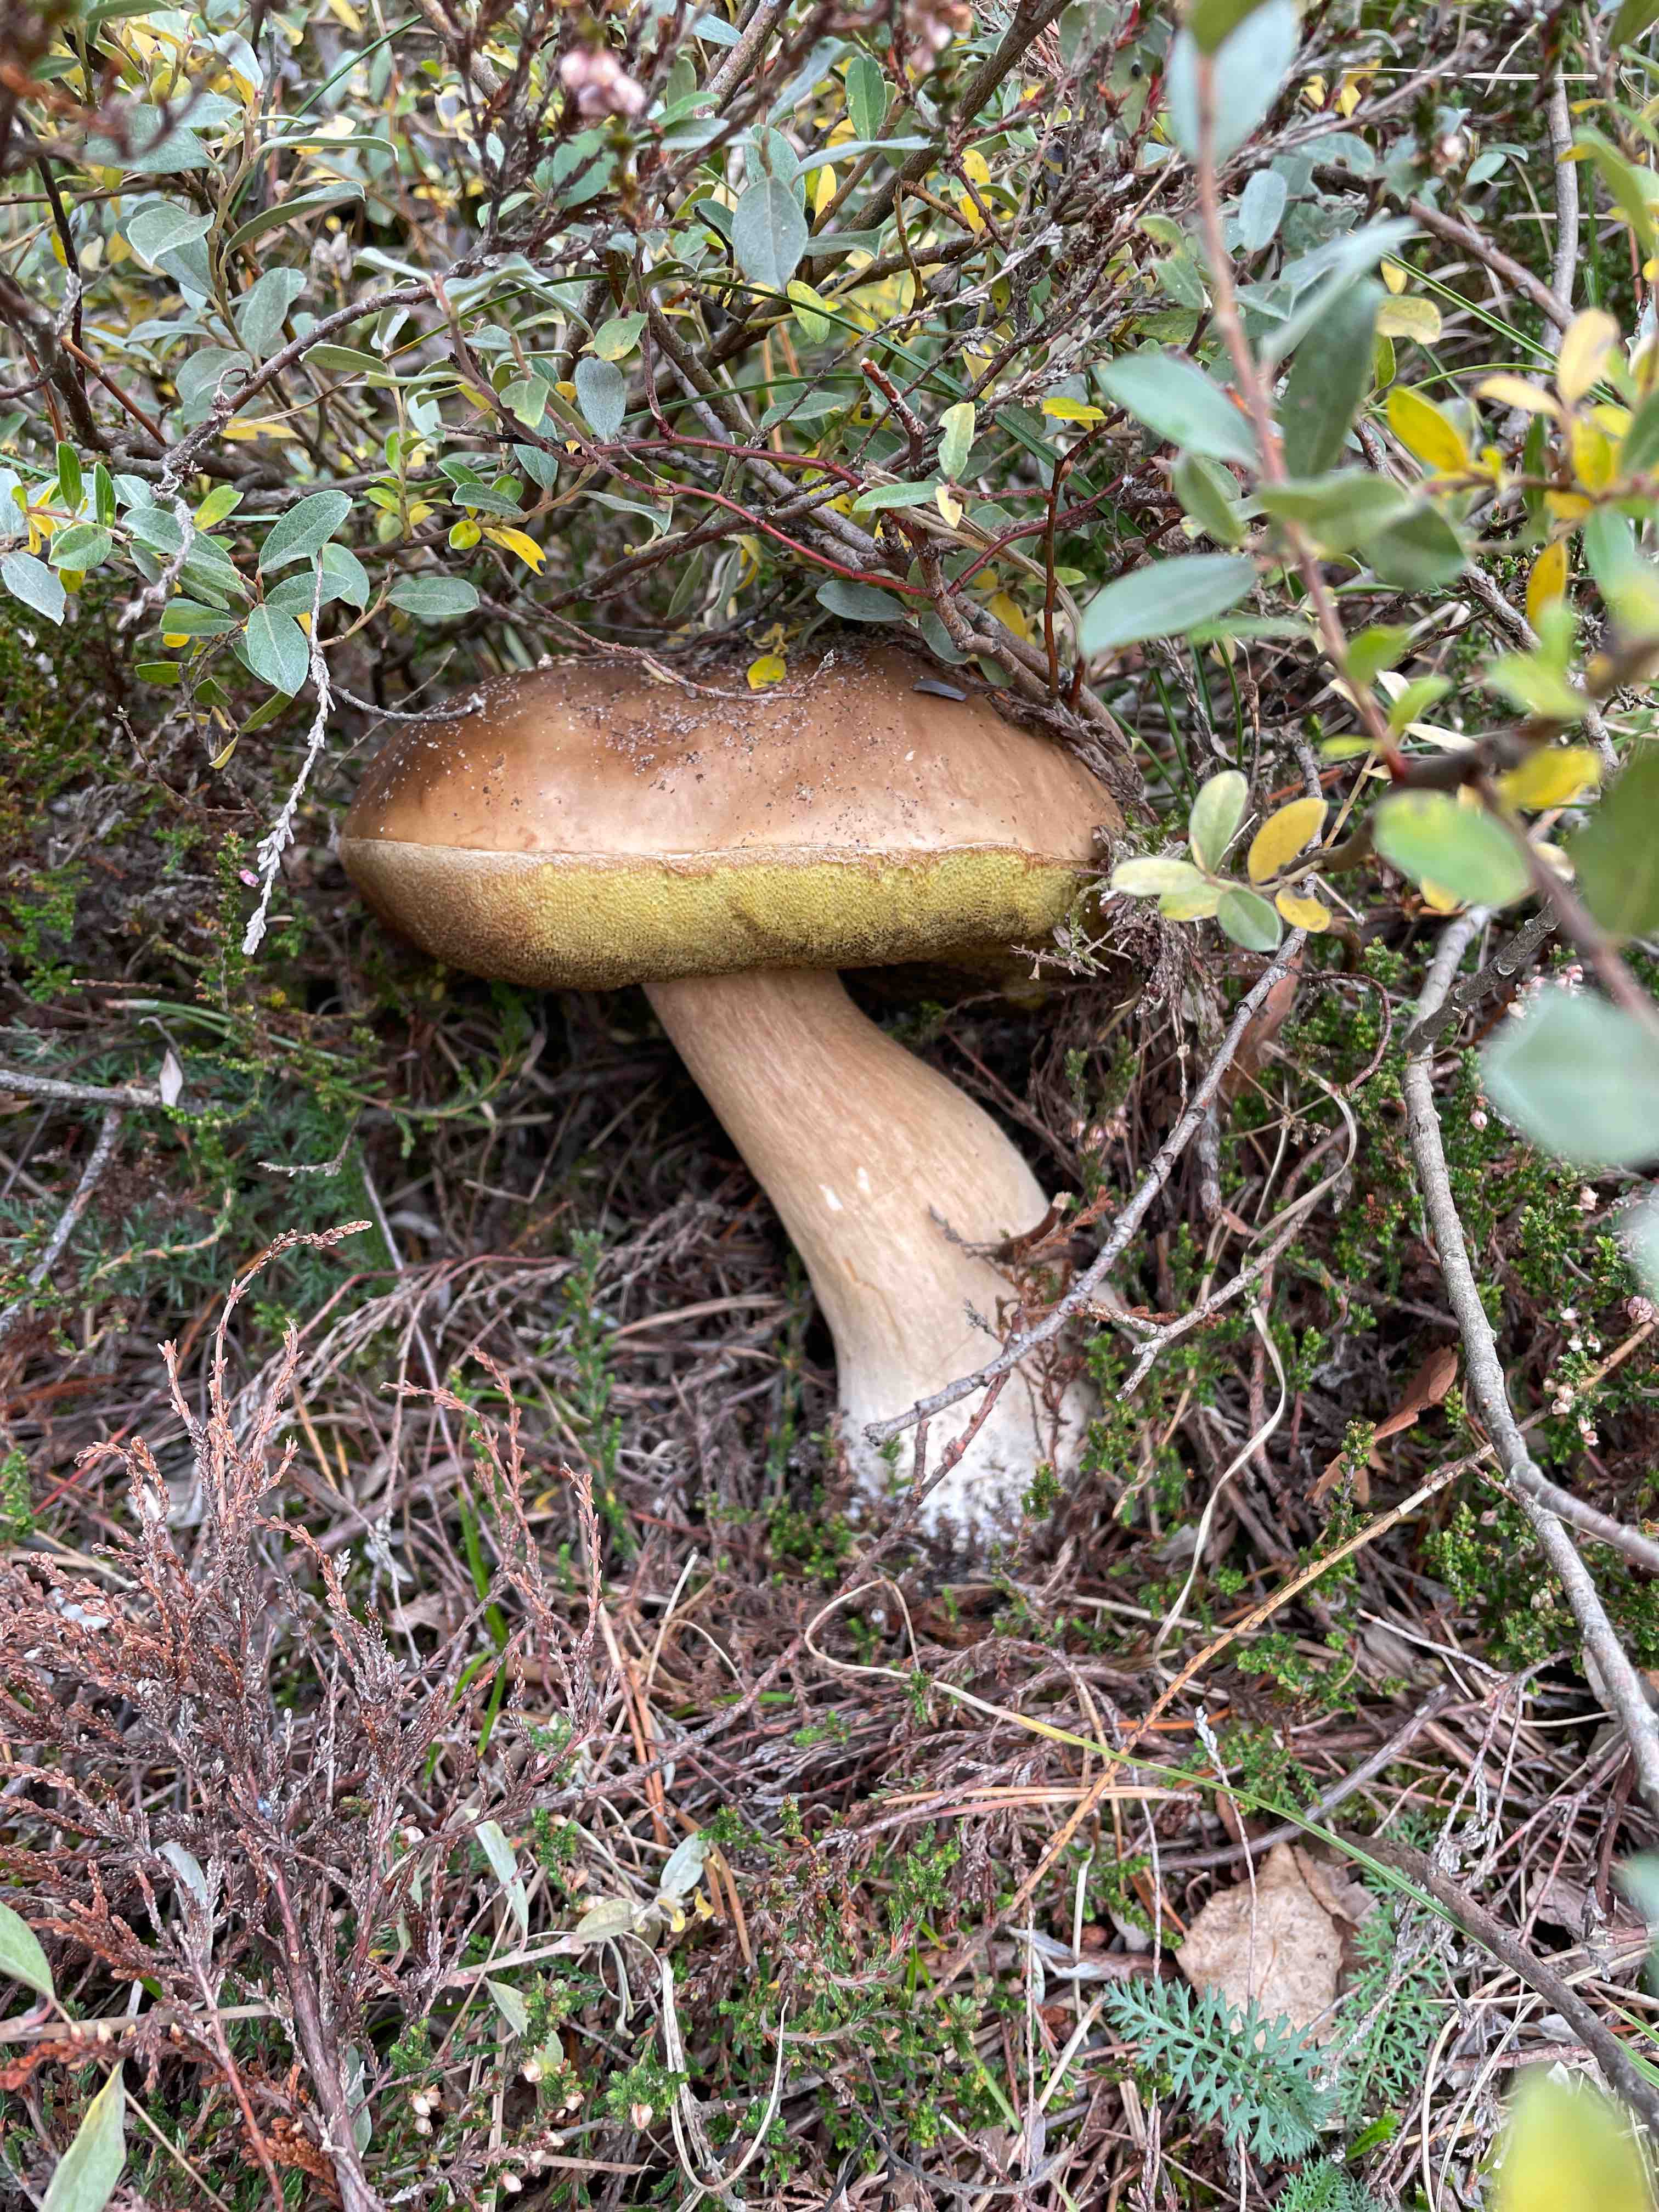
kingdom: Fungi
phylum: Basidiomycota
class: Agaricomycetes
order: Boletales
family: Boletaceae
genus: Boletus
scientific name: Boletus edulis
